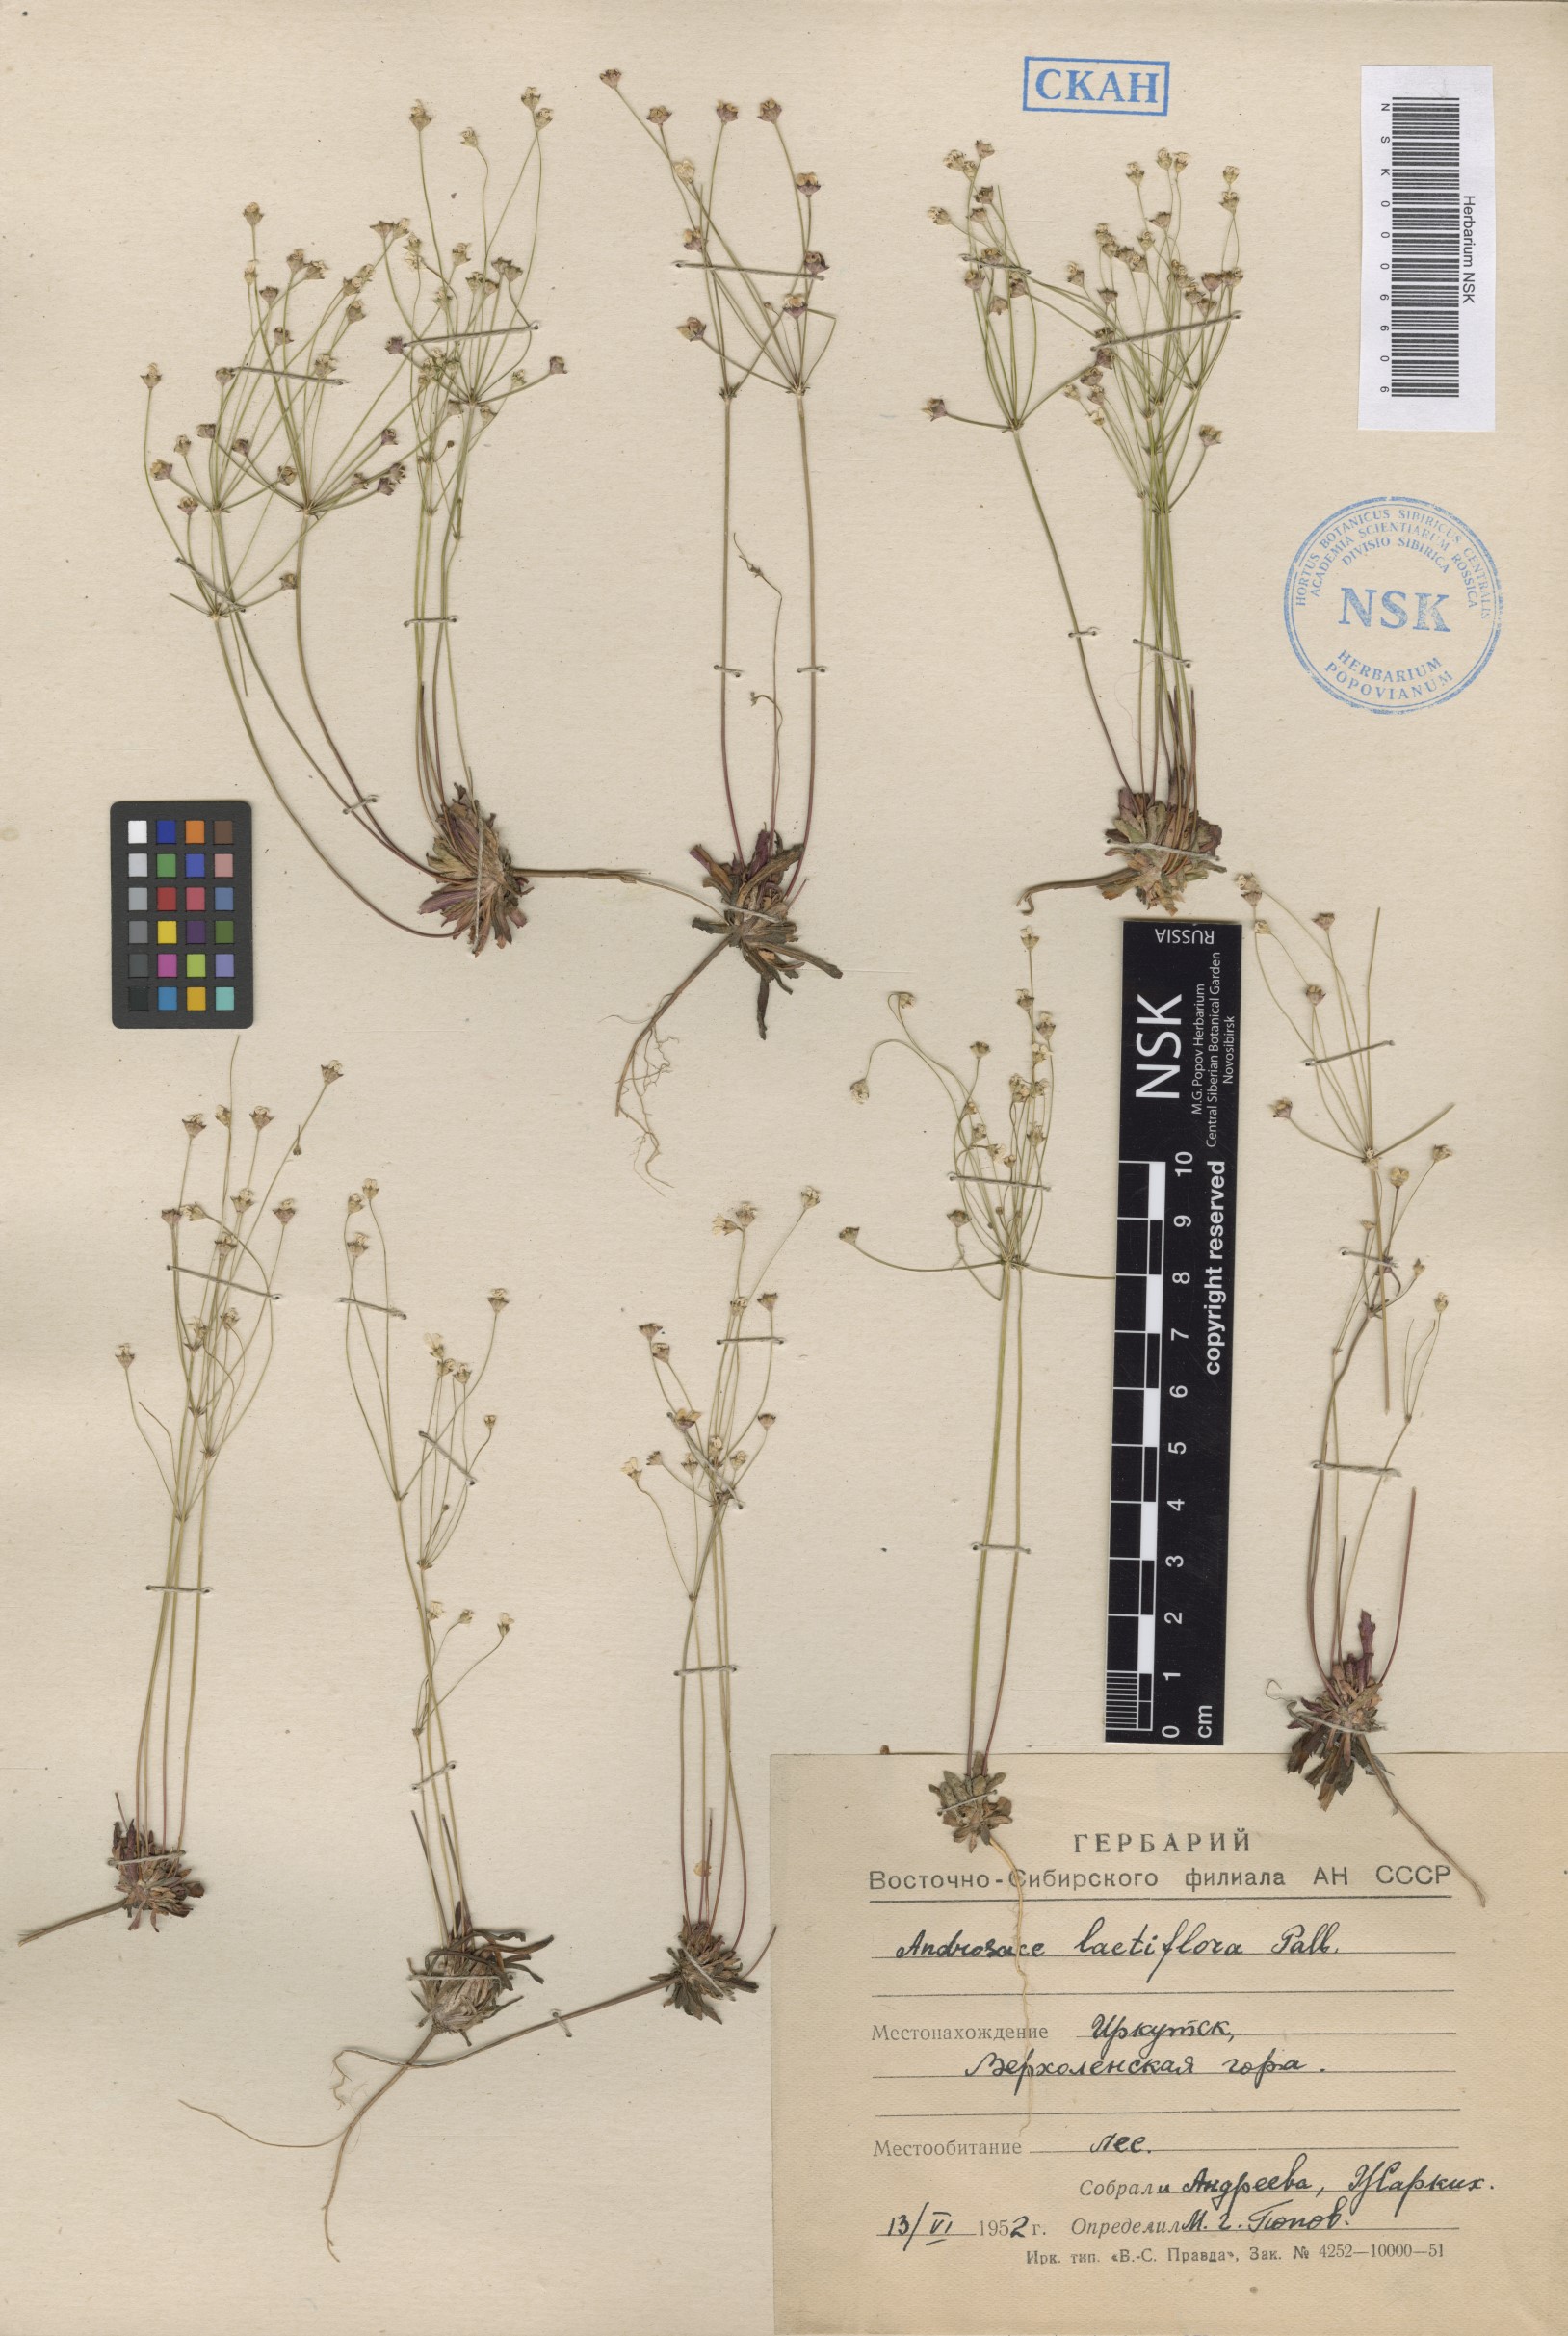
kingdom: Plantae
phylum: Tracheophyta
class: Magnoliopsida
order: Ericales
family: Primulaceae
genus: Androsace
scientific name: Androsace lactiflora
